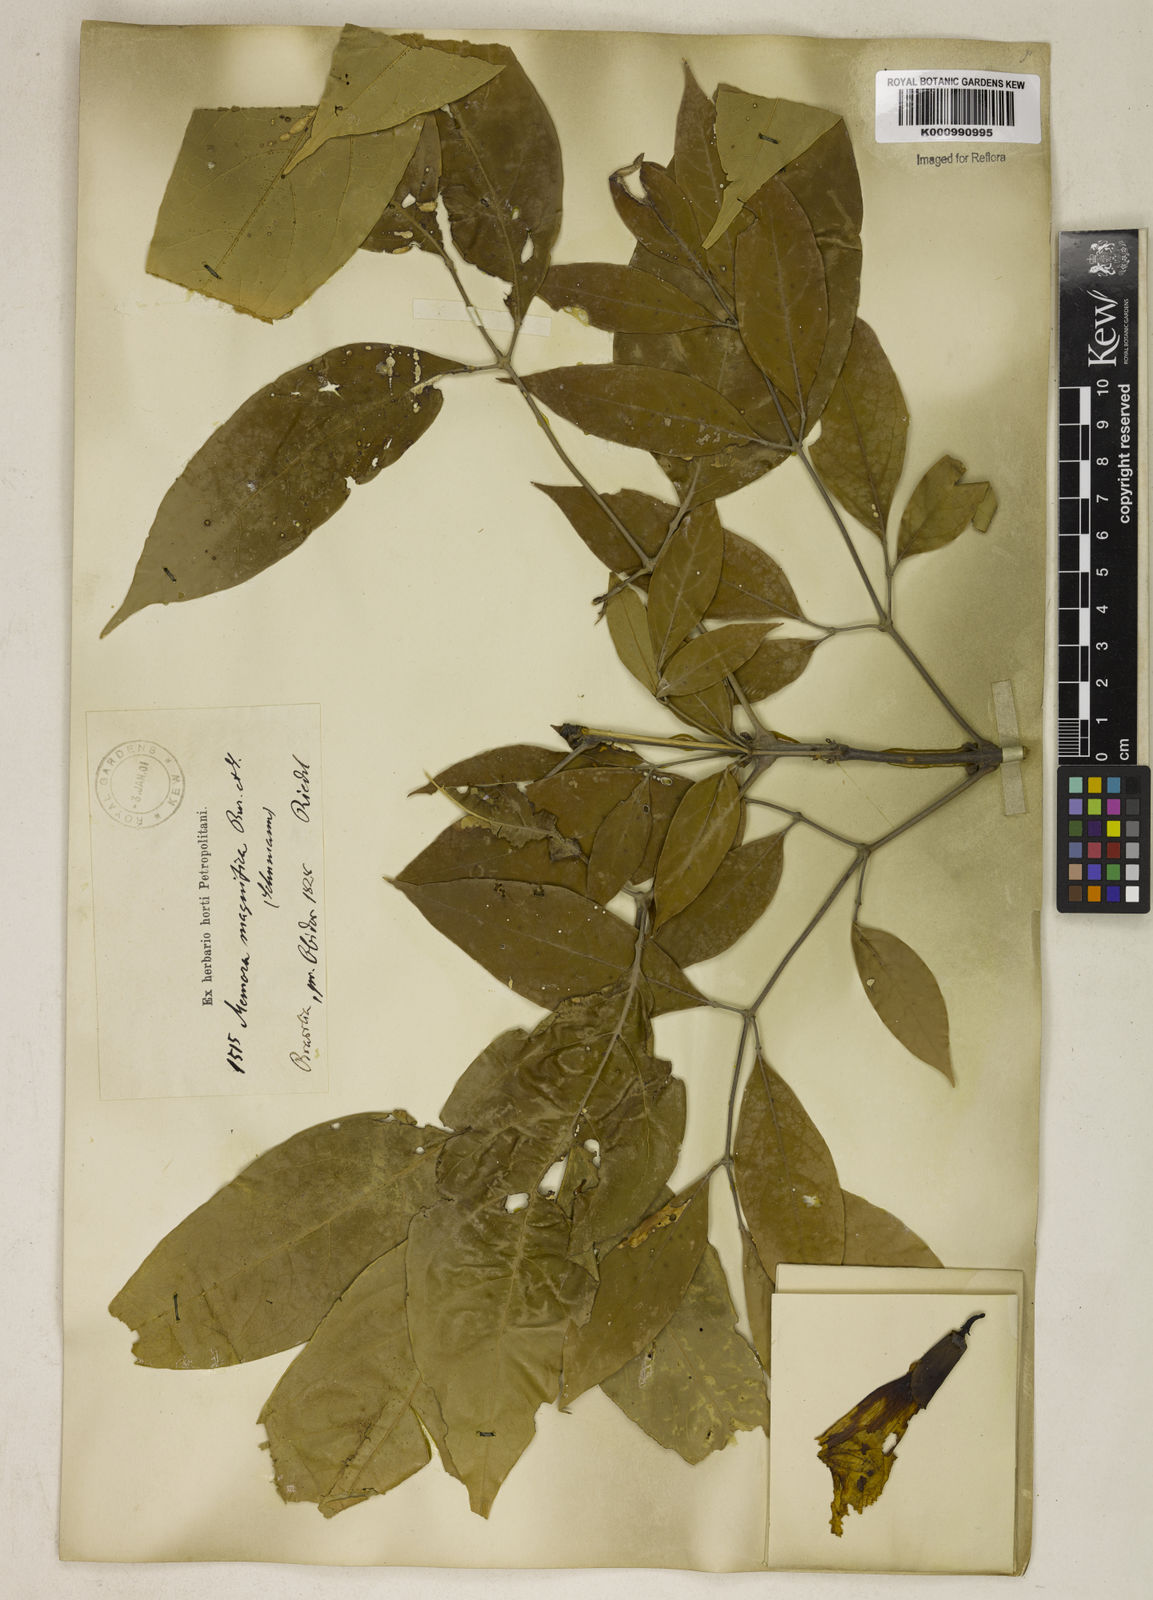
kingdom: Plantae
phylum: Tracheophyta
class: Magnoliopsida
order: Lamiales
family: Bignoniaceae
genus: Adenocalymma
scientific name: Adenocalymma magnificum
